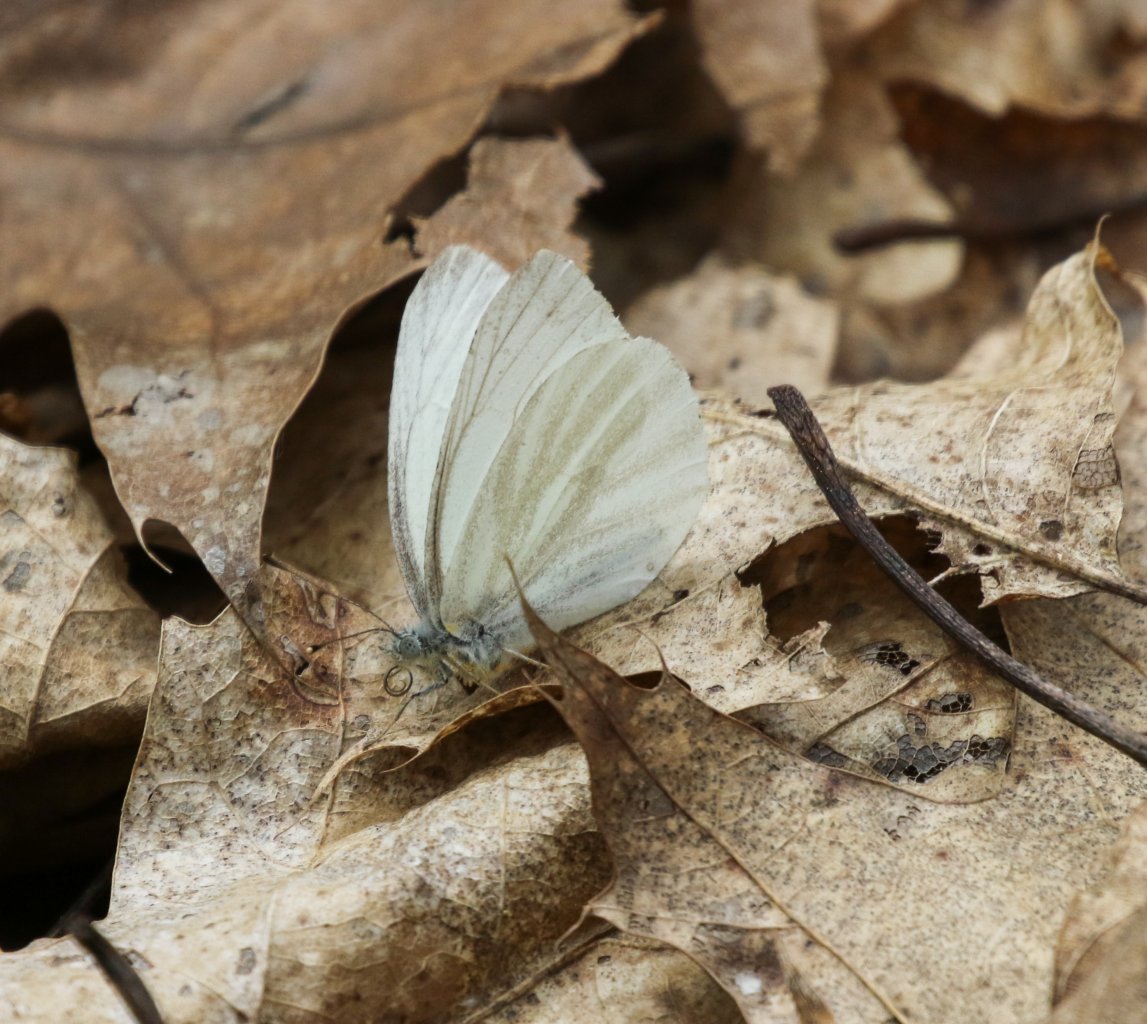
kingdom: Animalia
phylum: Arthropoda
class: Insecta
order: Lepidoptera
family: Pieridae
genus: Pieris
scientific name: Pieris virginiensis
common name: West Virginia White
